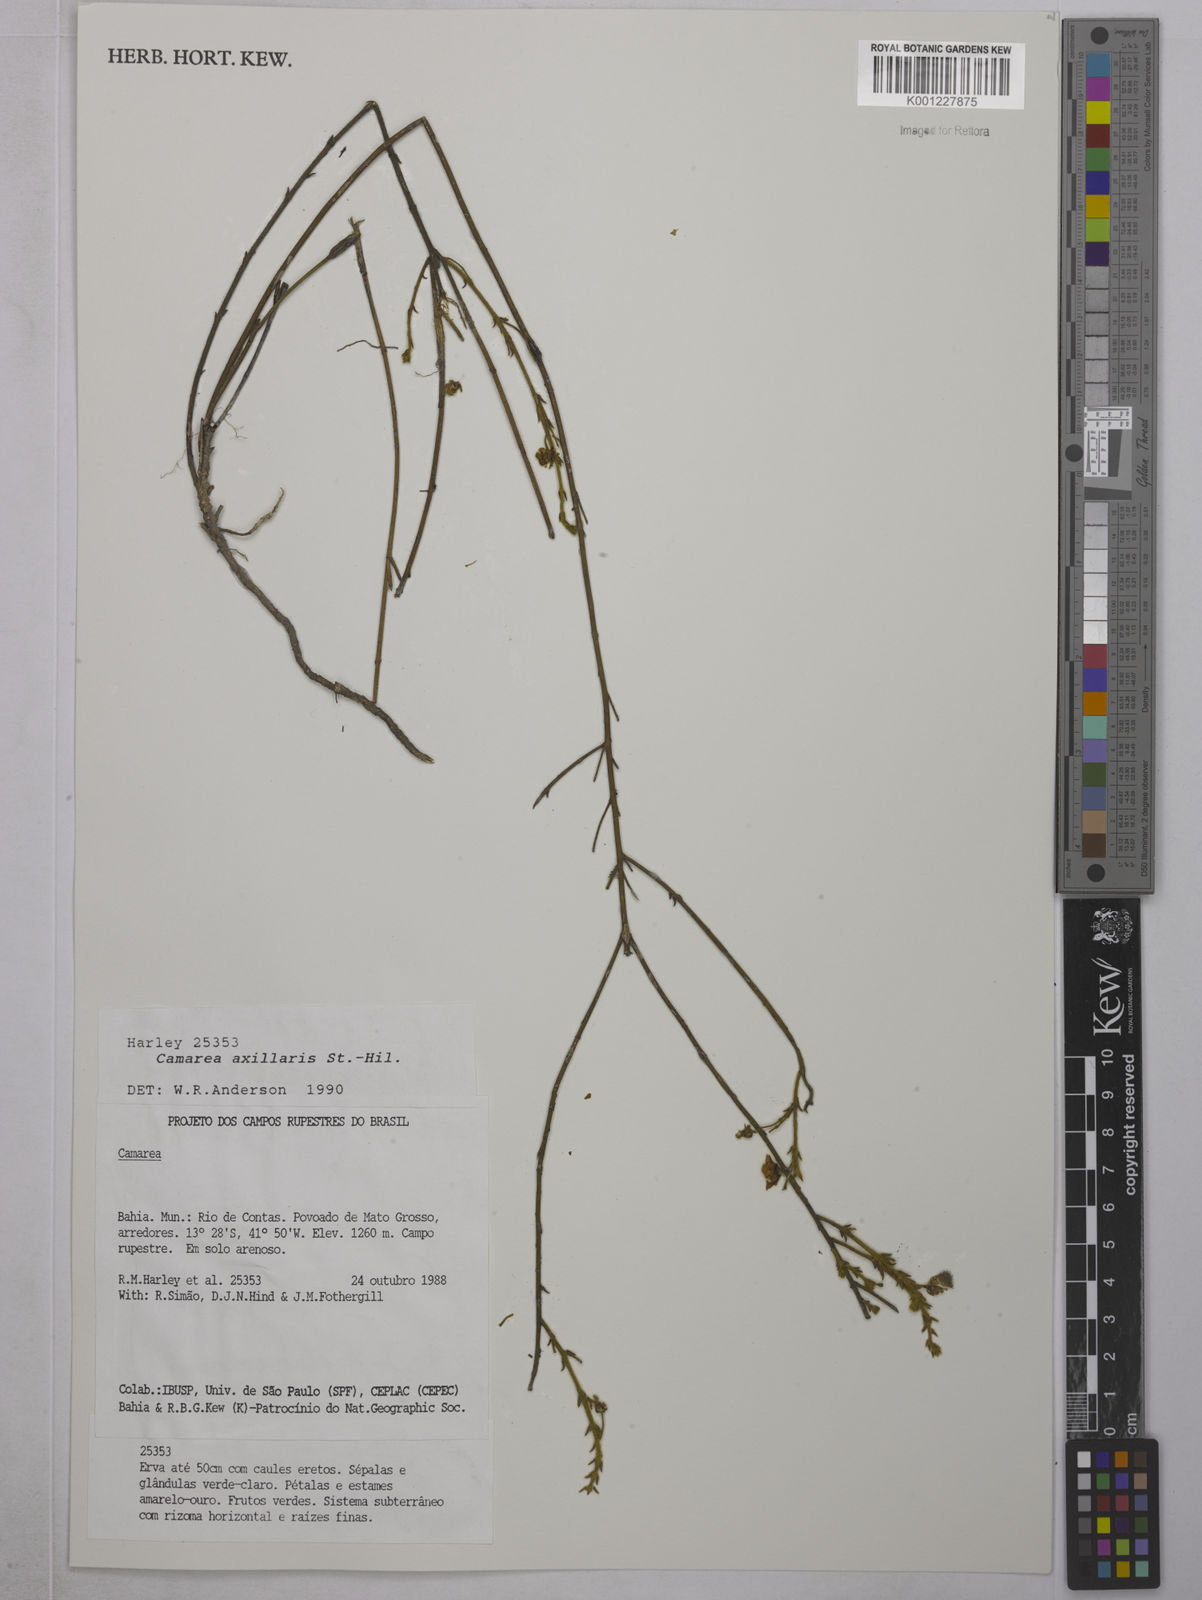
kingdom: Plantae
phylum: Tracheophyta
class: Magnoliopsida
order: Malpighiales
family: Malpighiaceae
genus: Camarea
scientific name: Camarea axillaris
